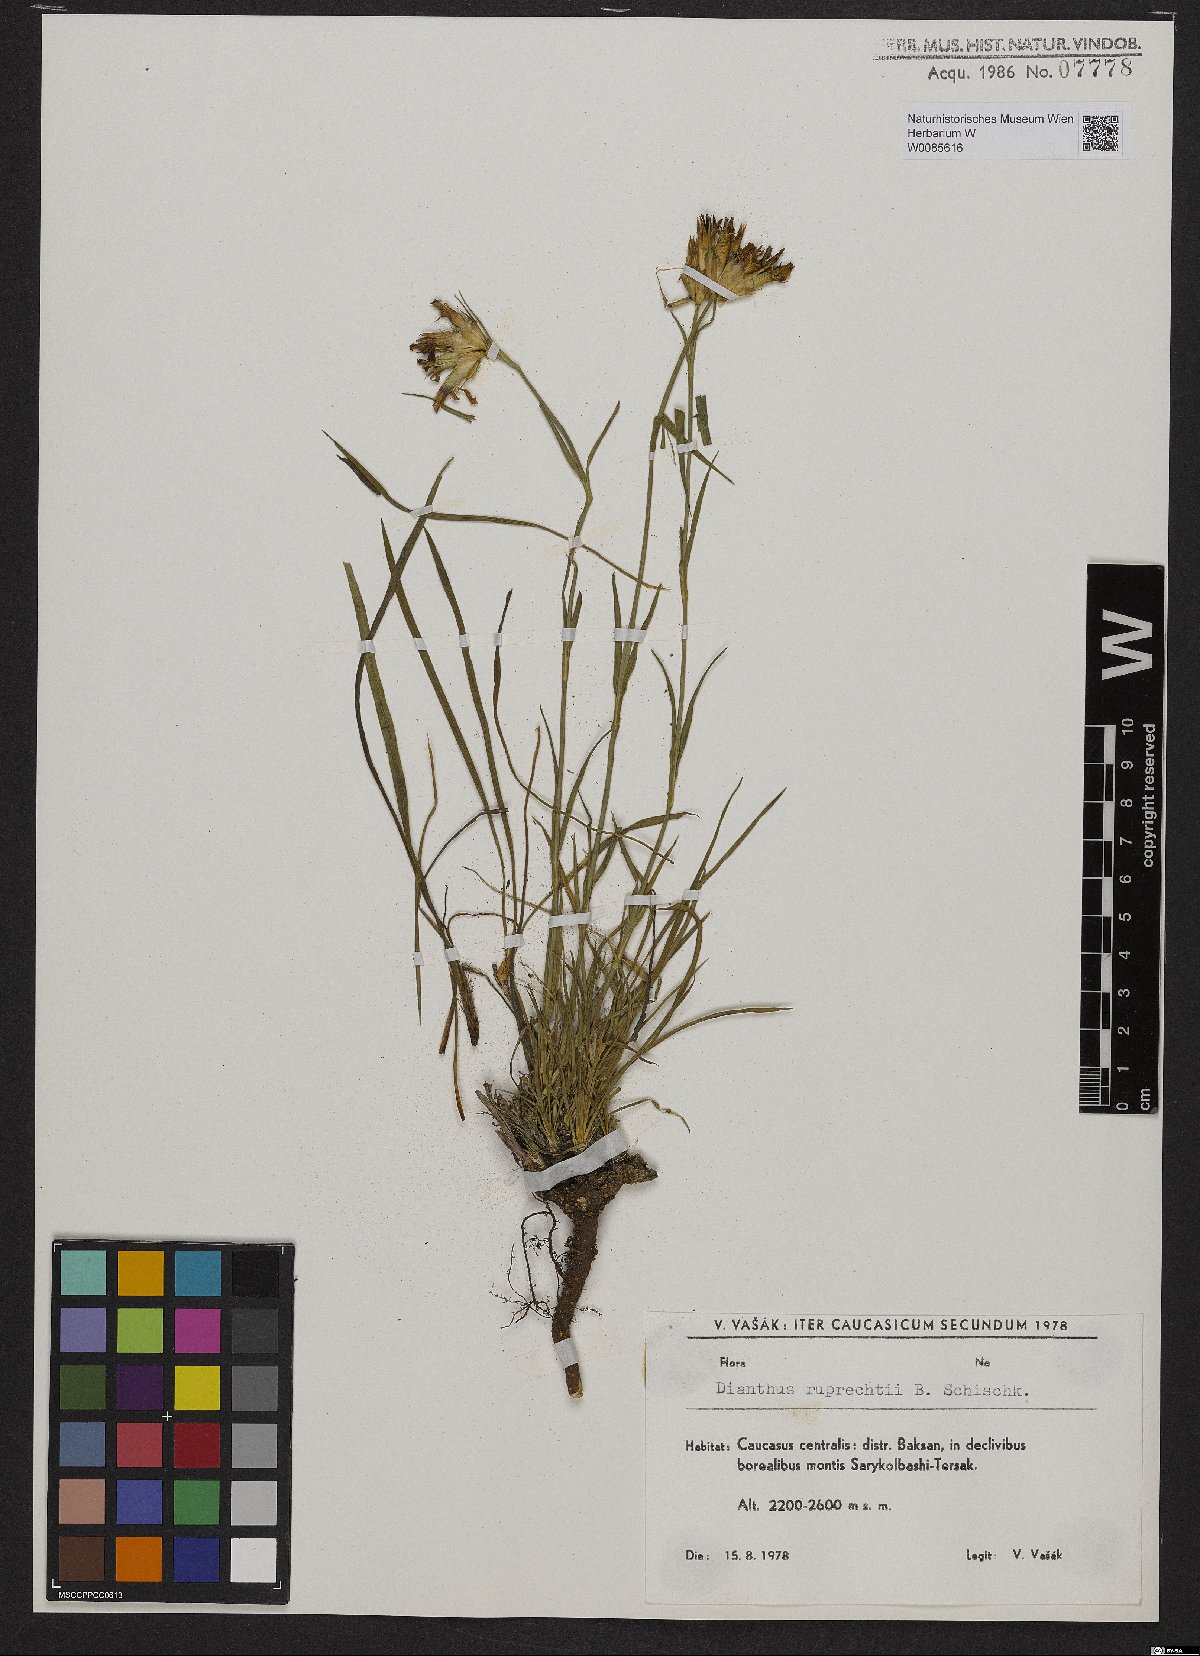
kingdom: Plantae
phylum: Tracheophyta
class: Magnoliopsida
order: Caryophyllales
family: Caryophyllaceae
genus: Dianthus
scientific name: Dianthus ruprechtii
